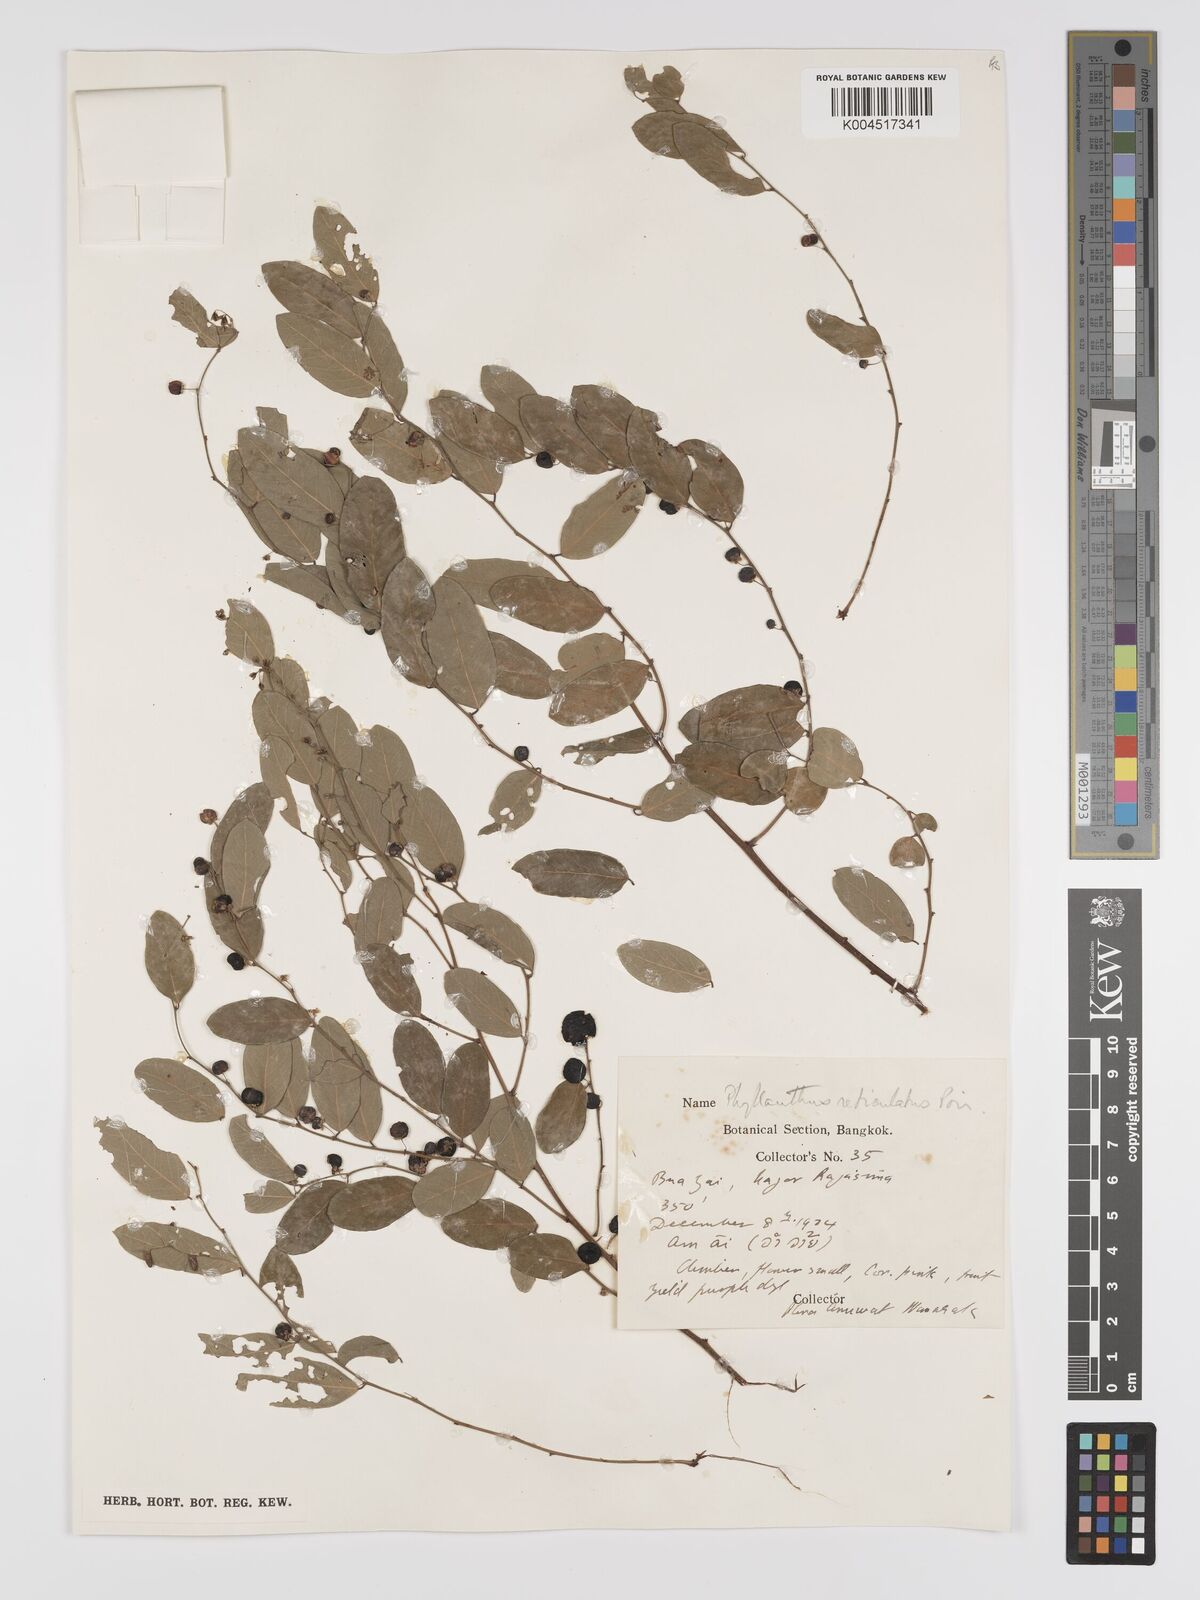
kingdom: Plantae
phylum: Tracheophyta
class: Magnoliopsida
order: Malpighiales
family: Phyllanthaceae
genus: Phyllanthus
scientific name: Phyllanthus reticulatus
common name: Potato bush
